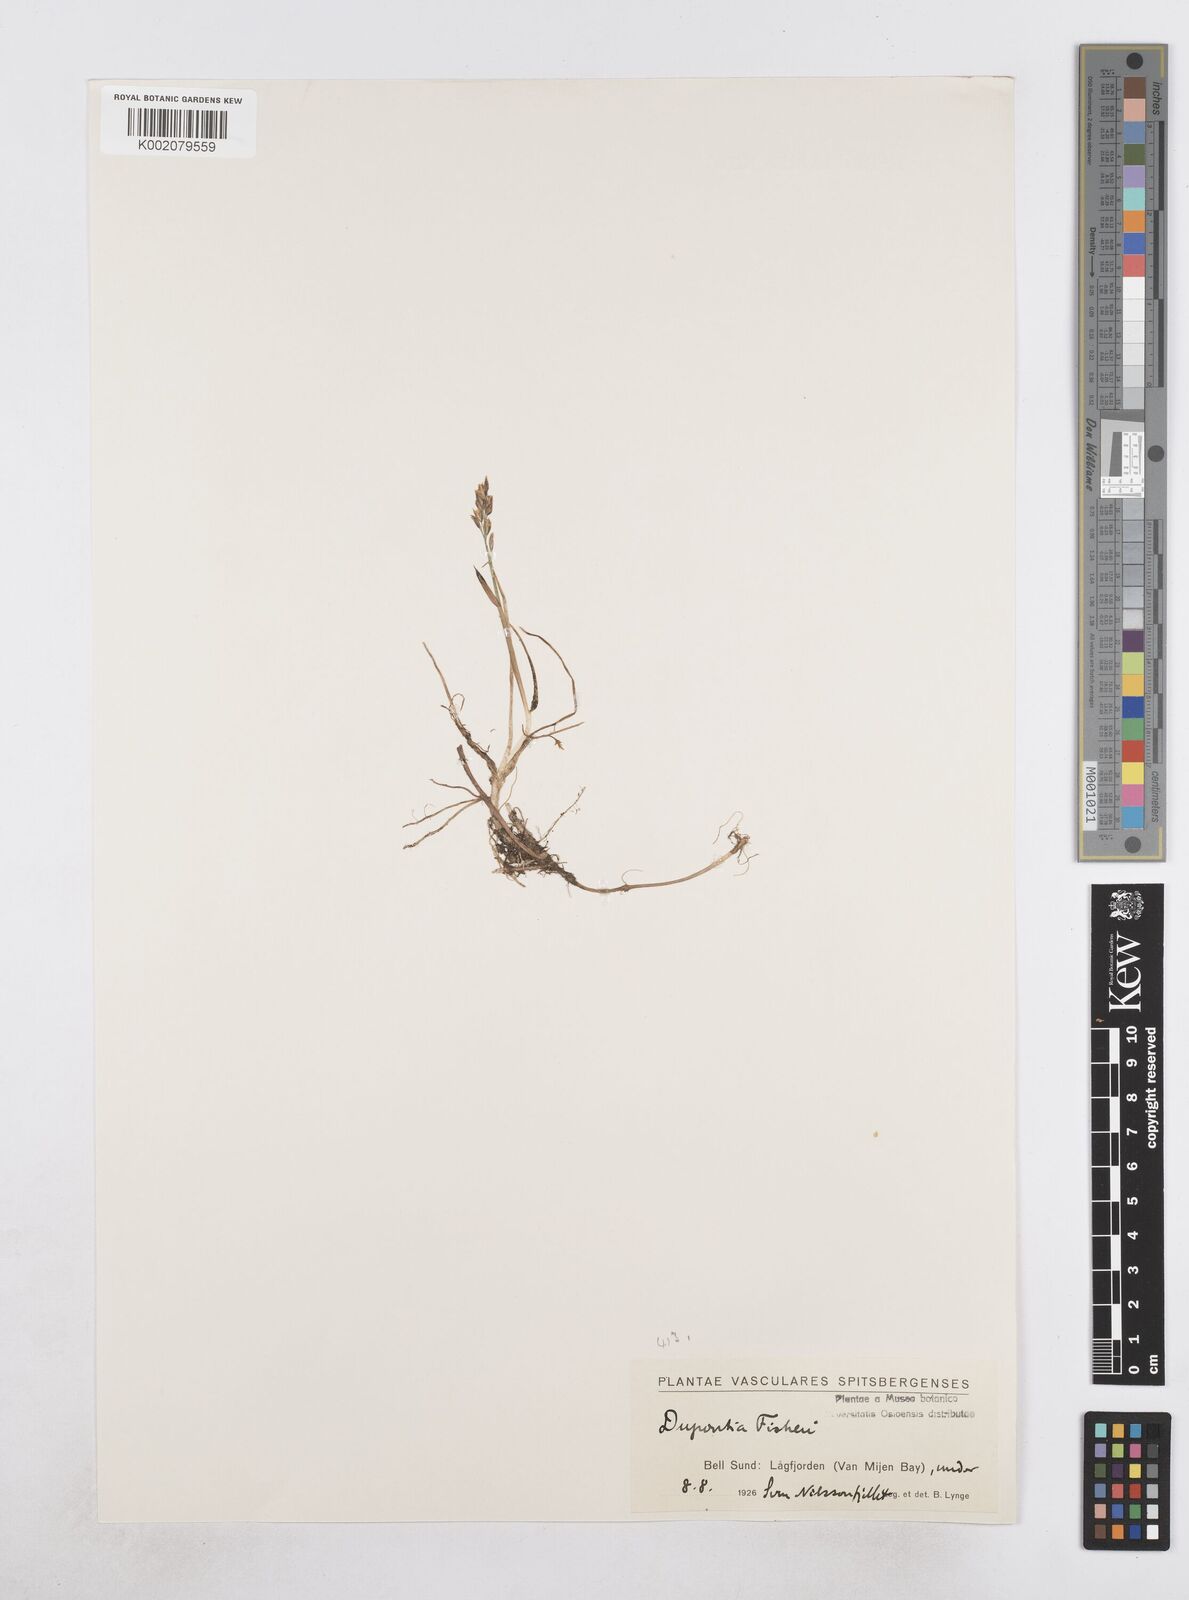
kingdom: Plantae
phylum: Tracheophyta
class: Liliopsida
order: Poales
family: Poaceae
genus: Dupontia
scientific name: Dupontia fisheri
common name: Tundra grass
